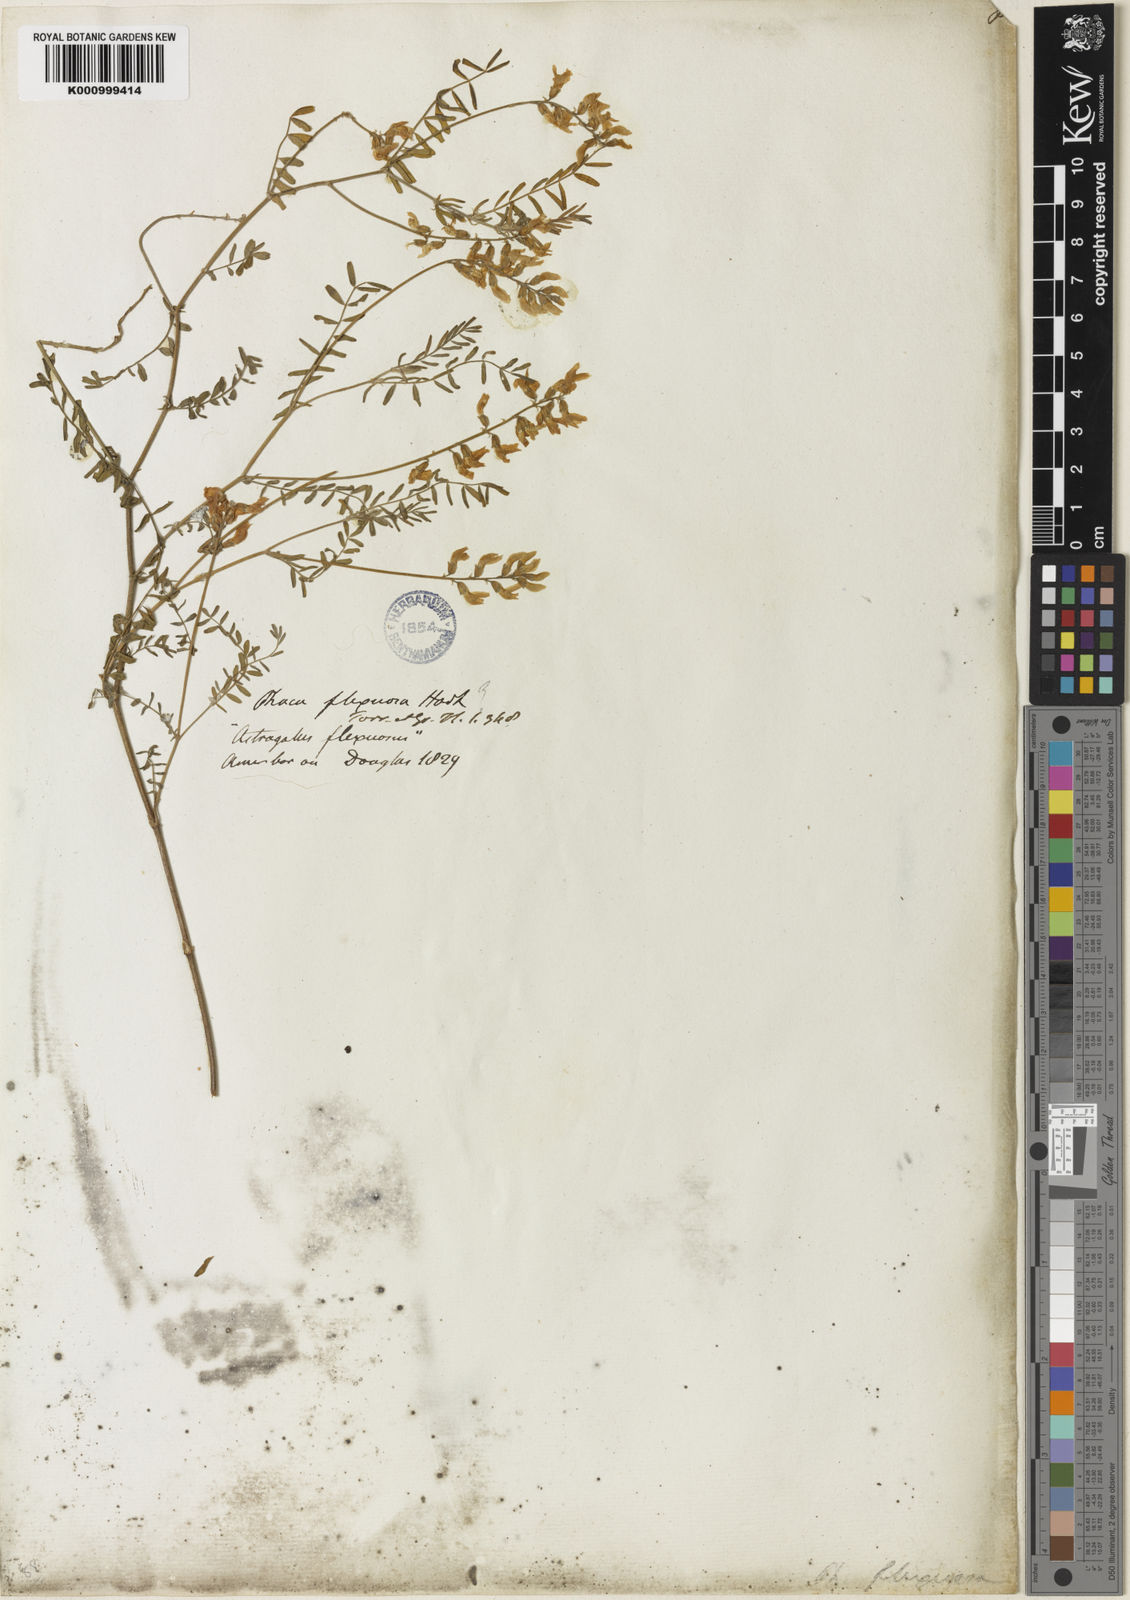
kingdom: Plantae
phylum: Tracheophyta
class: Magnoliopsida
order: Fabales
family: Fabaceae
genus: Astragalus
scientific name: Astragalus flexuosus
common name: Pliant milk-vetch
